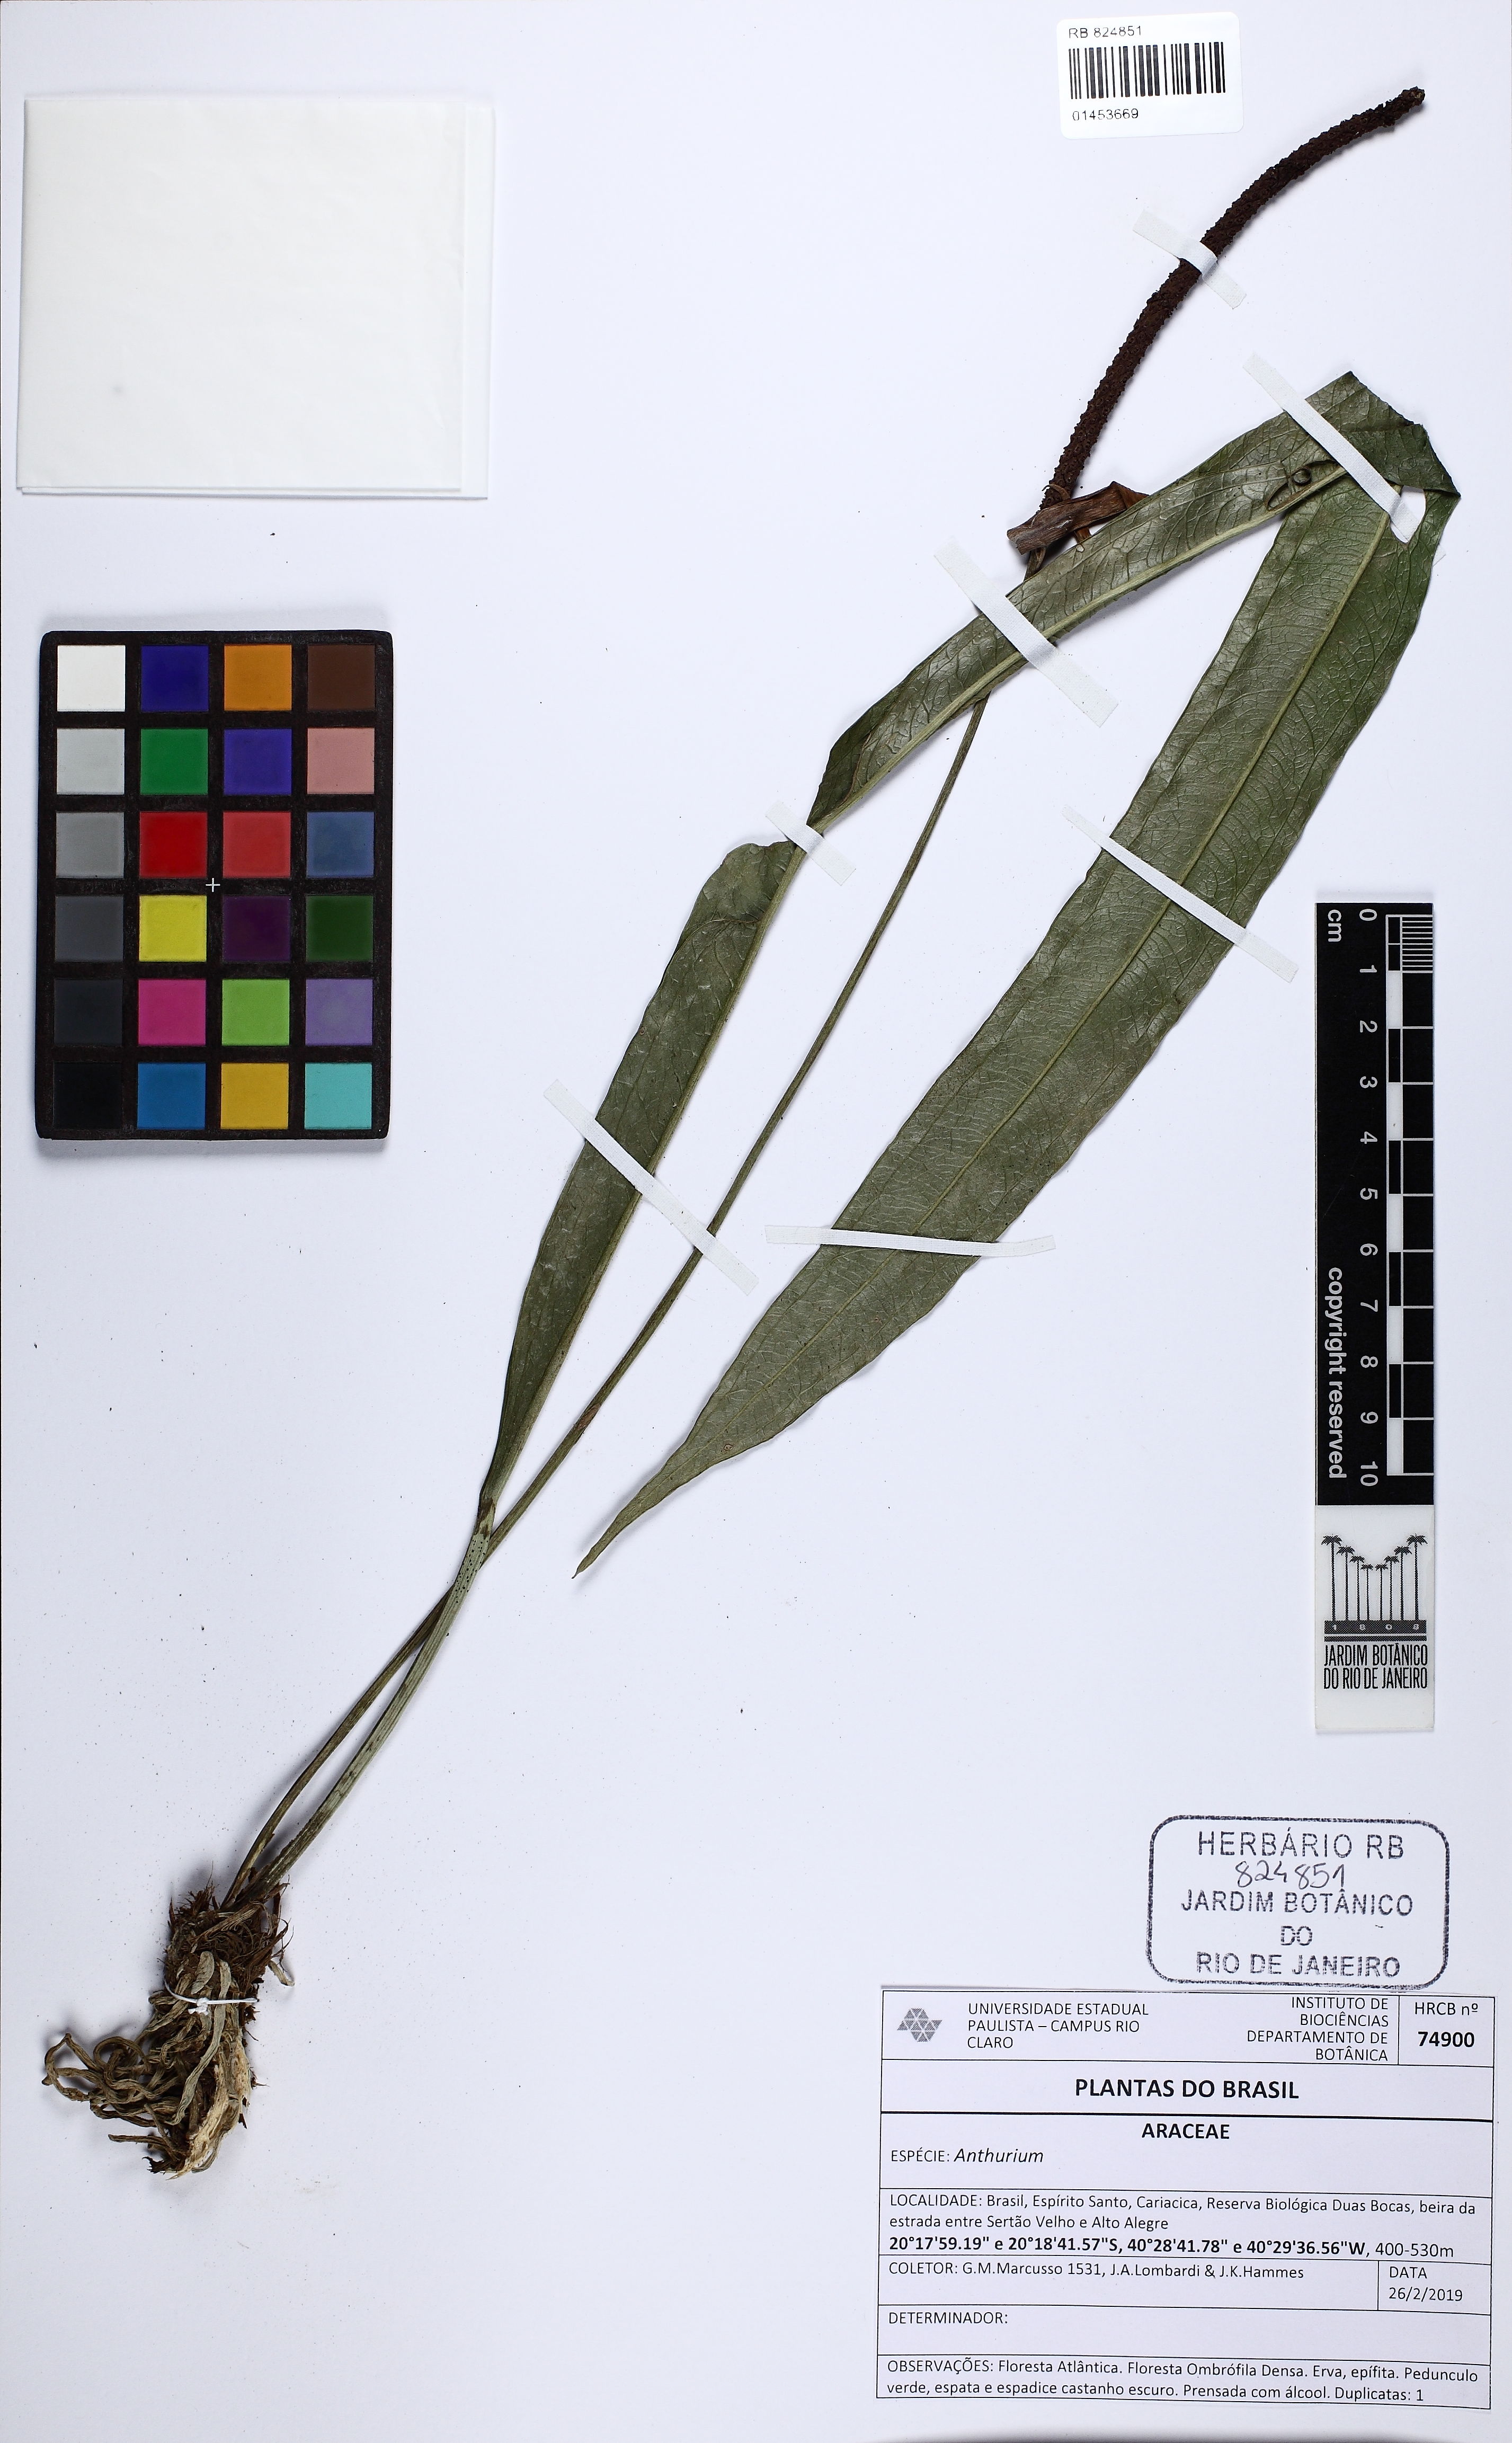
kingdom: Plantae
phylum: Tracheophyta
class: Liliopsida
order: Alismatales
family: Araceae
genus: Anthurium
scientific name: Anthurium
